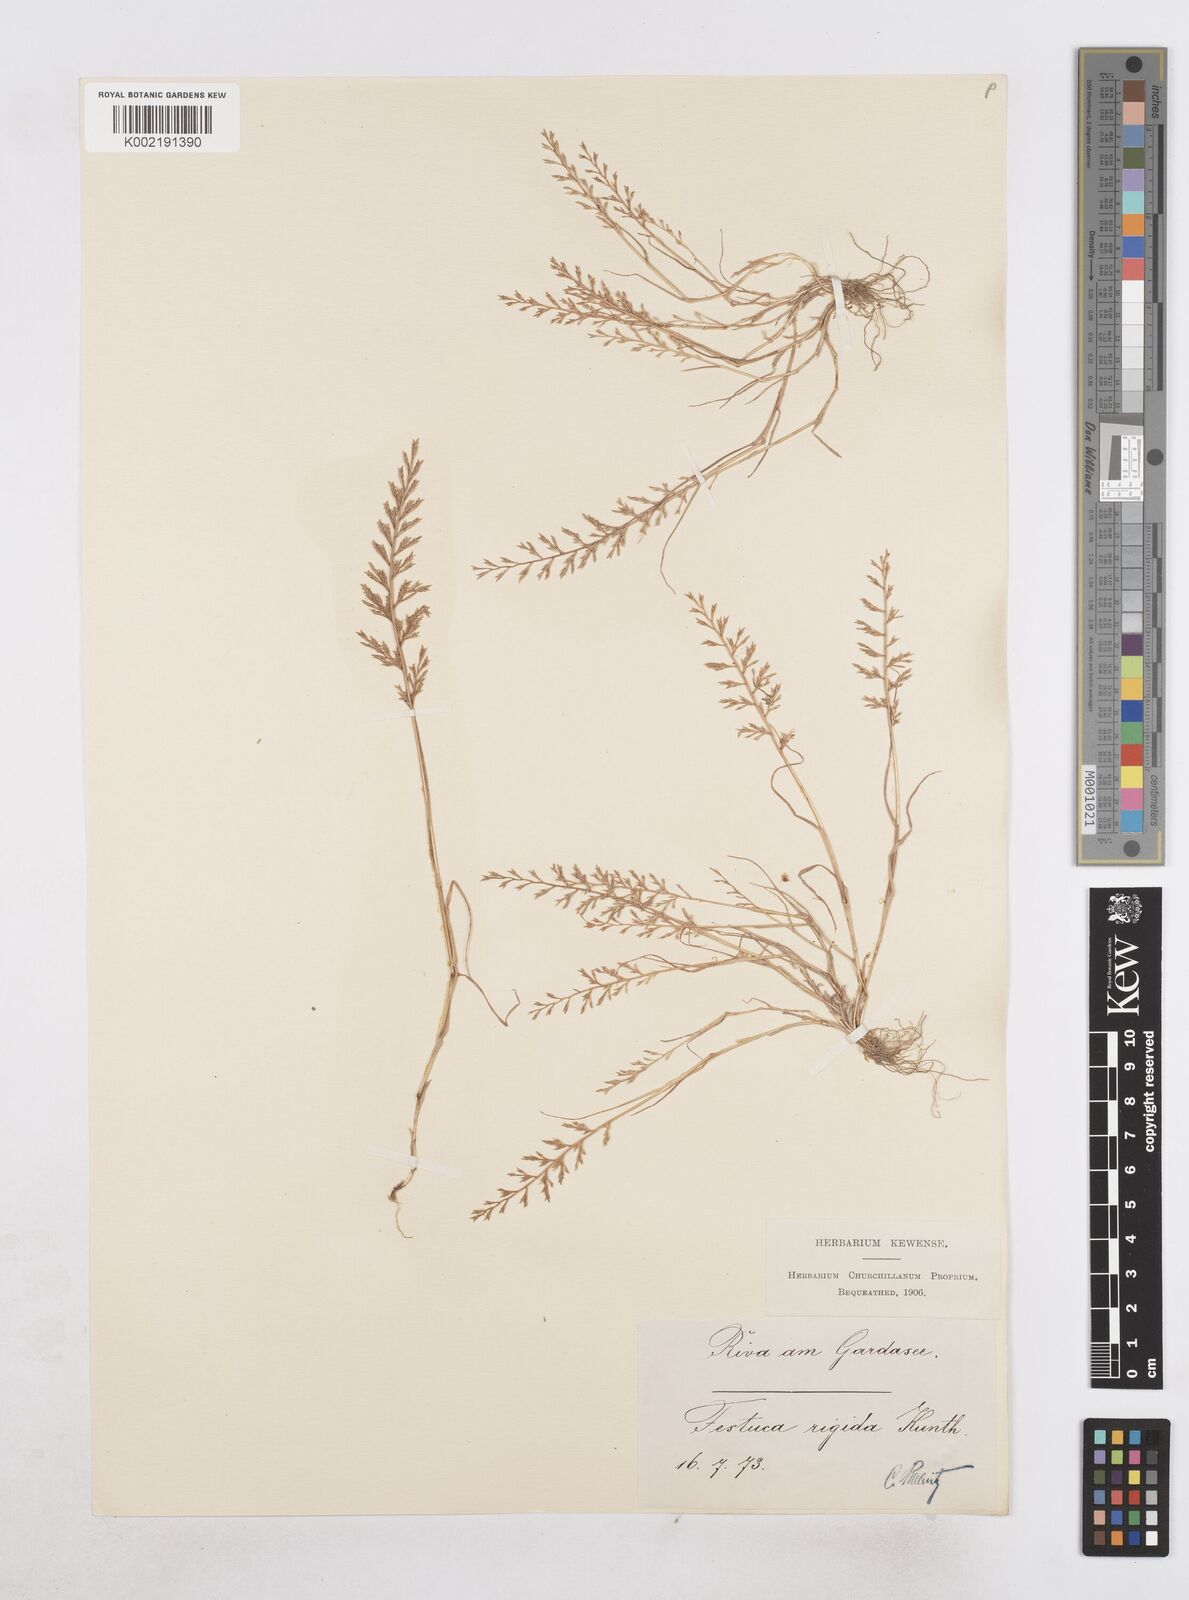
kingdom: Plantae
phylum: Tracheophyta
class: Liliopsida
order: Poales
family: Poaceae
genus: Catapodium
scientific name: Catapodium rigidum
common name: Fern-grass
